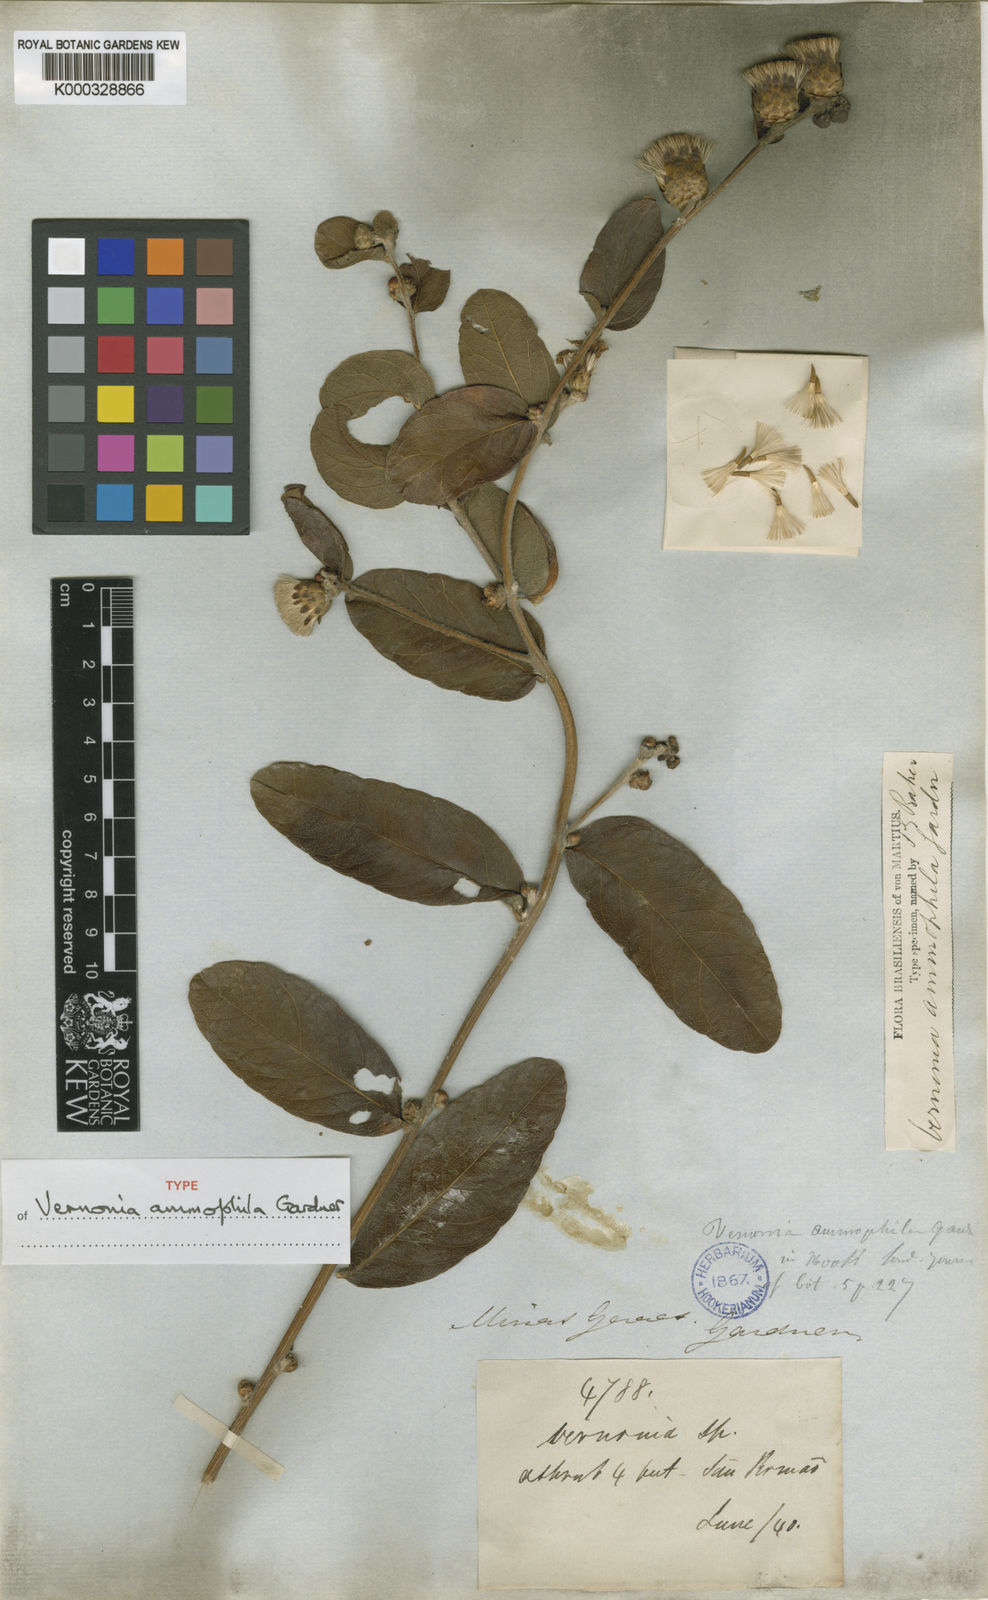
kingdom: Plantae
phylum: Tracheophyta
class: Magnoliopsida
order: Asterales
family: Asteraceae
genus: Lessingianthus
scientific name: Lessingianthus ammophilus
